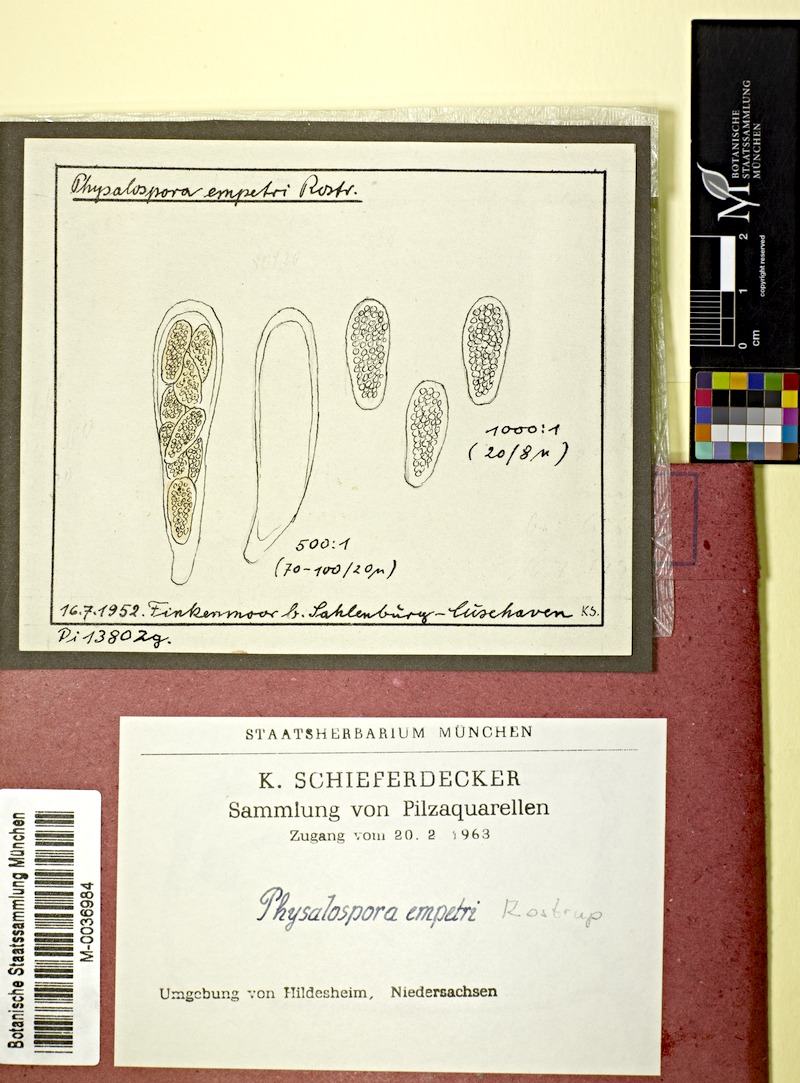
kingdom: Fungi
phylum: Ascomycota
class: Sordariomycetes
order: Xylariales
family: Hyponectriaceae
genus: Physalospora
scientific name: Physalospora empetri
